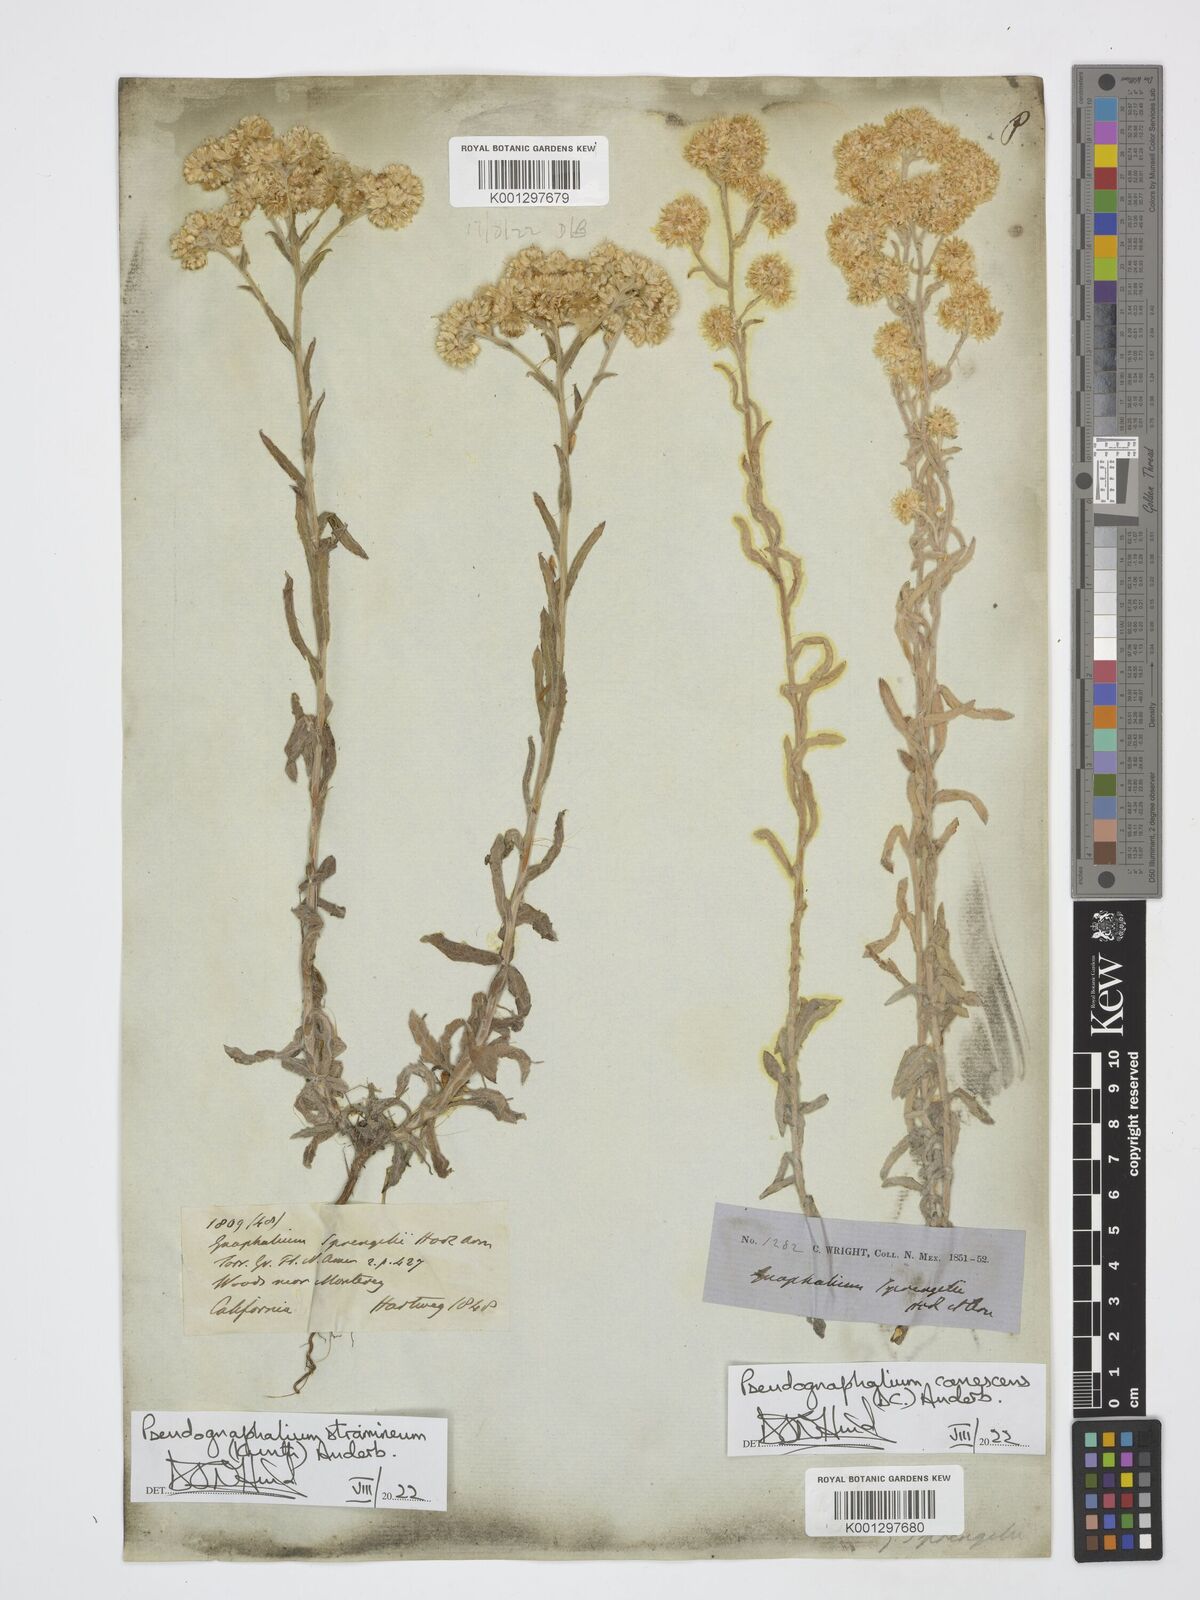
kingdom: Plantae
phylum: Tracheophyta
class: Magnoliopsida
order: Asterales
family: Asteraceae
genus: Pseudognaphalium
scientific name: Pseudognaphalium stramineum
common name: Cotton-batting-plant
